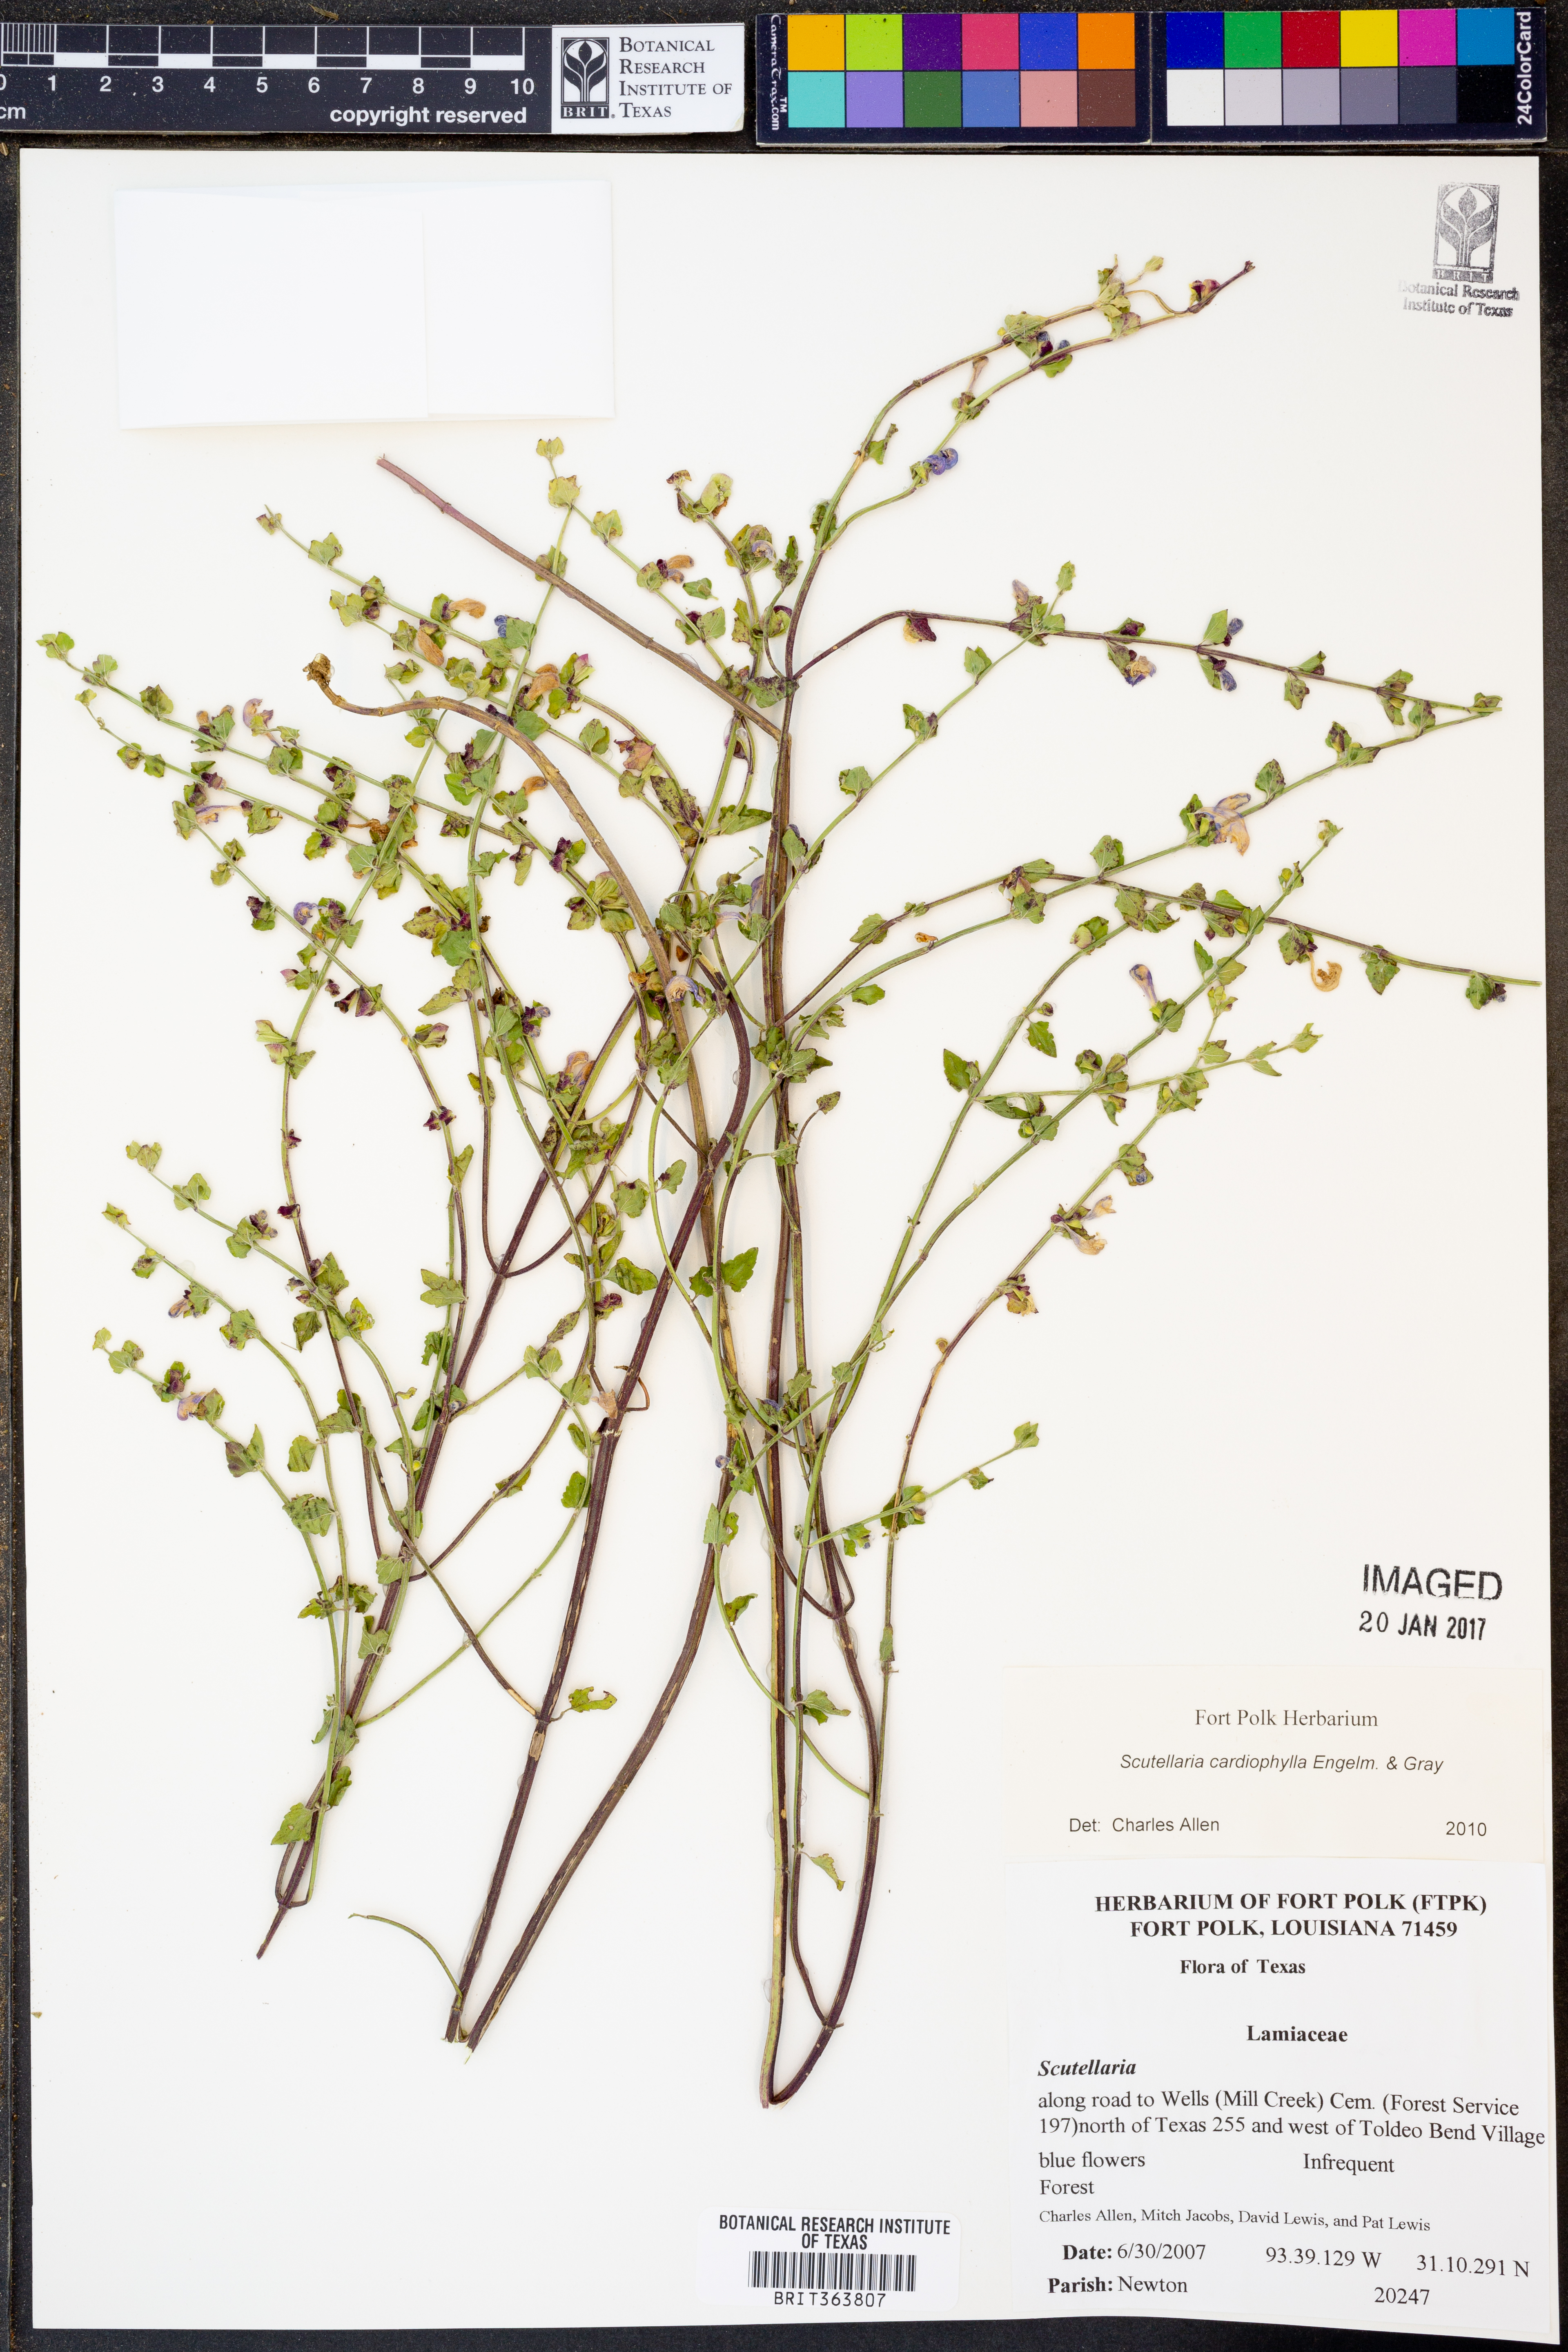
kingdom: Plantae
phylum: Tracheophyta
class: Magnoliopsida
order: Lamiales
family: Lamiaceae
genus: Scutellaria
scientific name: Scutellaria cardiophylla
